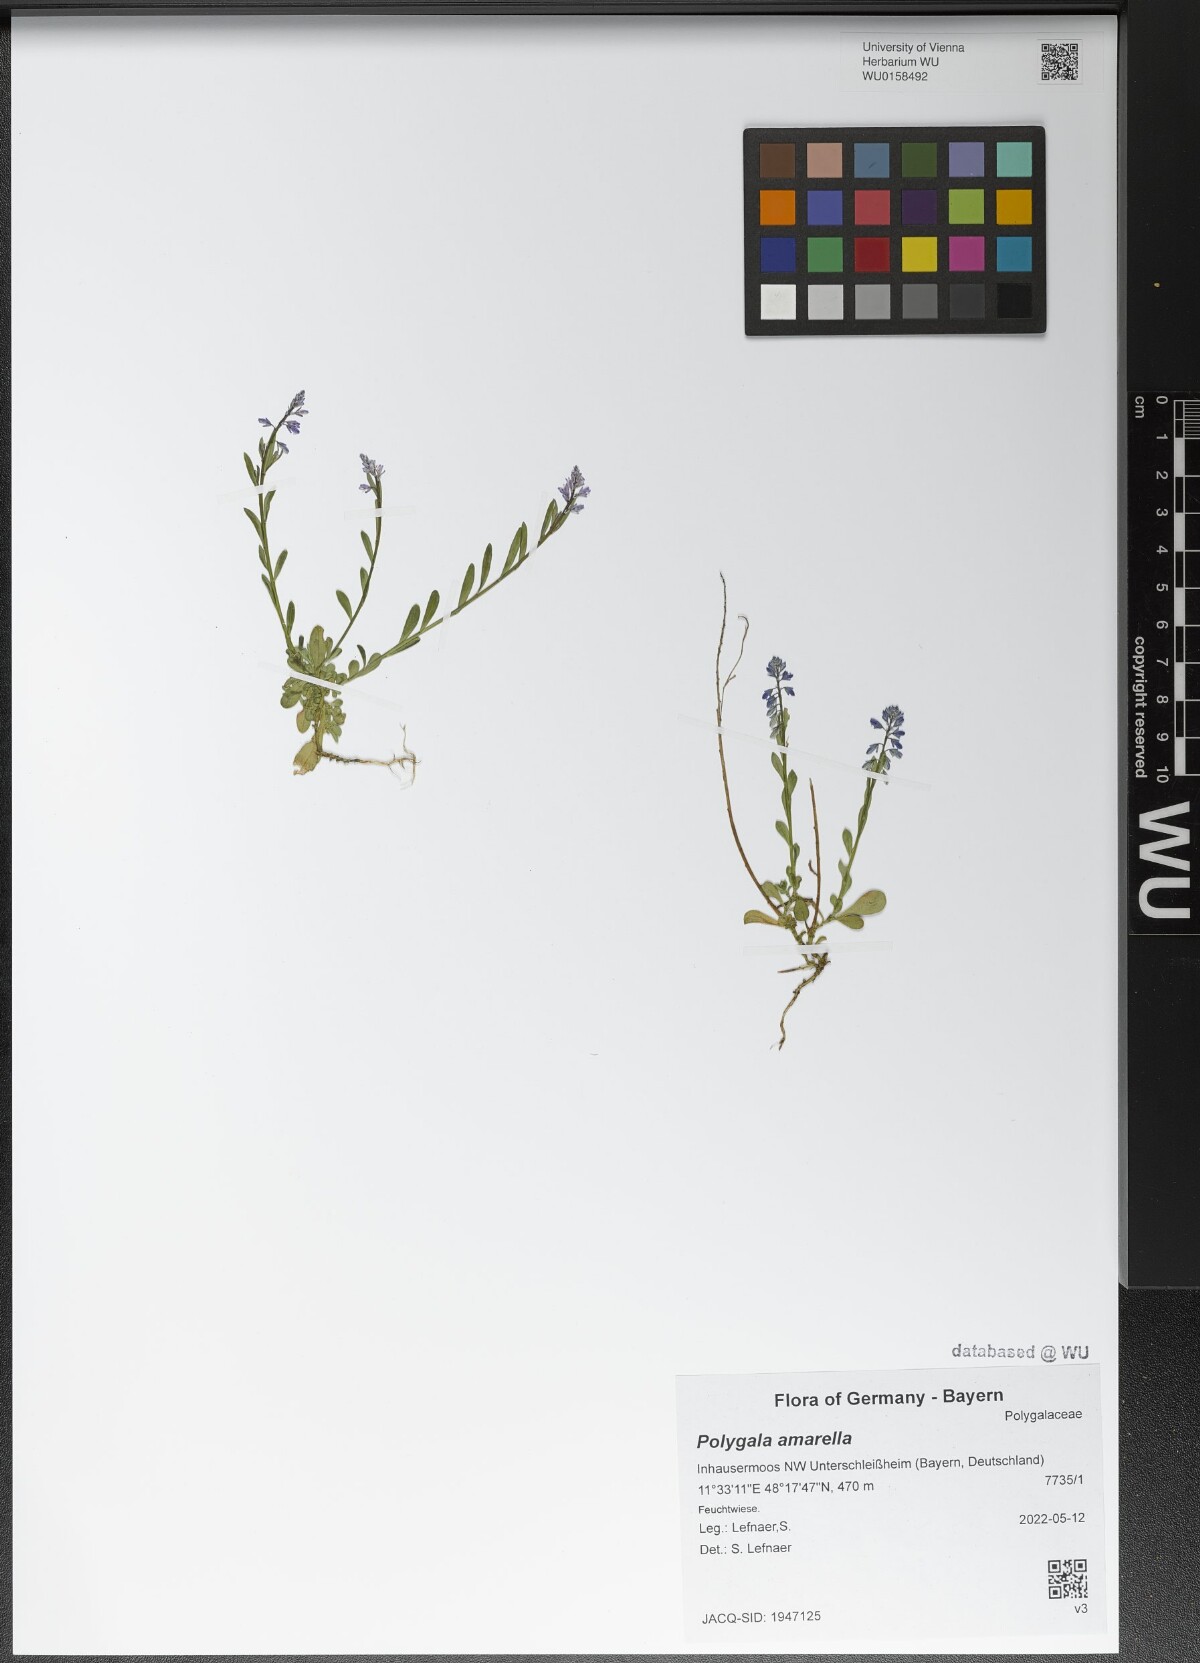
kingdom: Plantae
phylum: Tracheophyta
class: Magnoliopsida
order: Fabales
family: Polygalaceae
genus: Polygala
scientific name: Polygala amarella
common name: Dwarf milkwort
